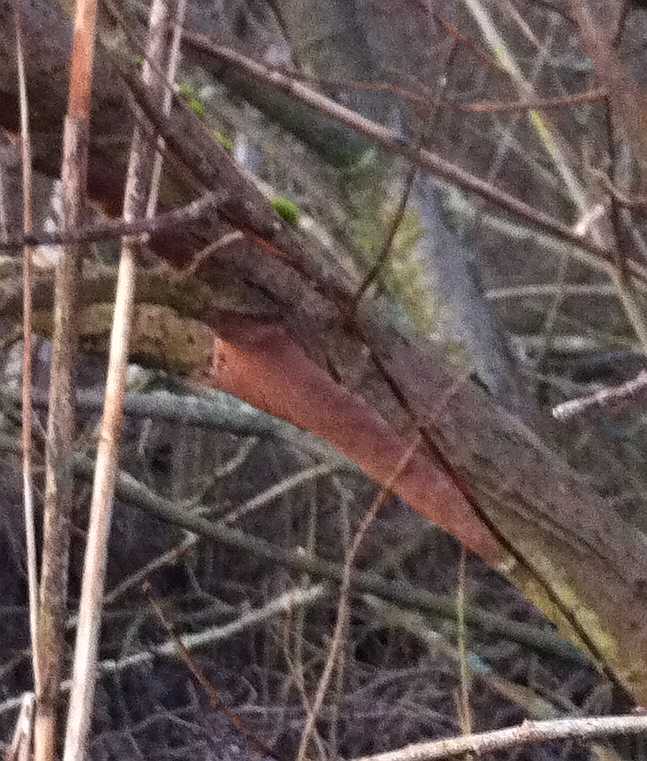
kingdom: Fungi
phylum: Basidiomycota
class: Agaricomycetes
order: Hymenochaetales
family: Hymenochaetaceae
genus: Fomitiporia
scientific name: Fomitiporia punctata
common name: pude-ildporesvamp
